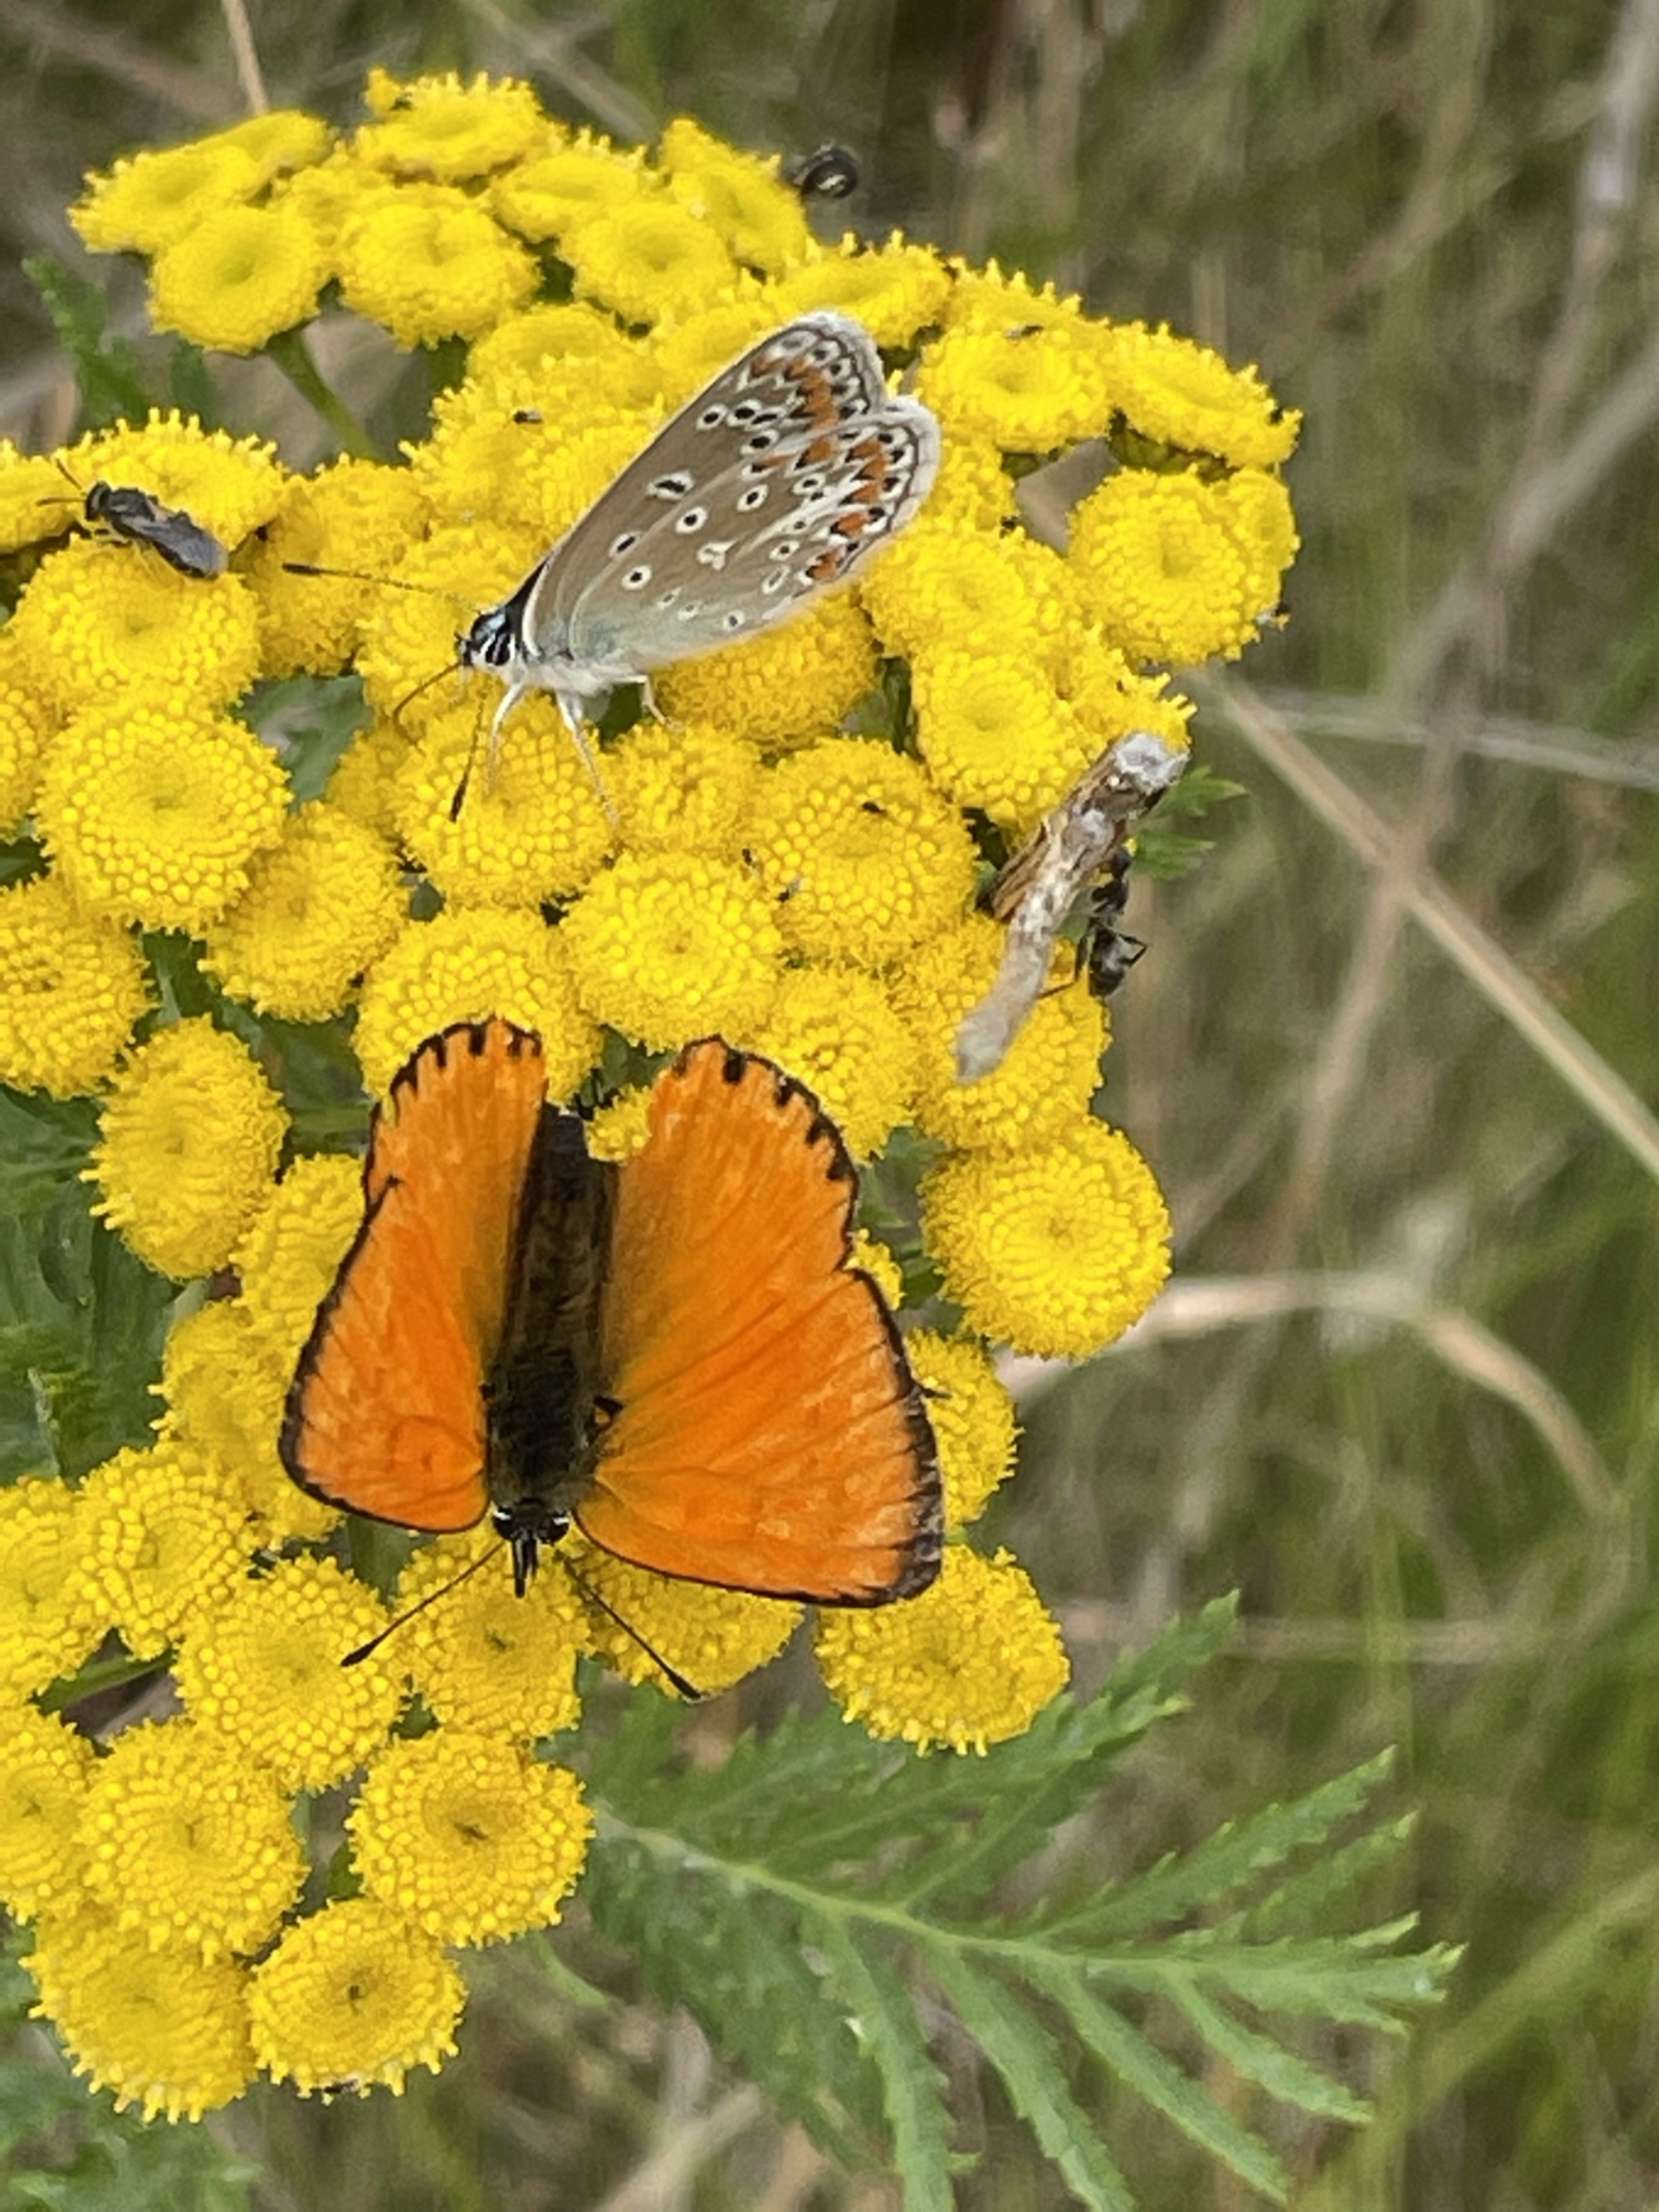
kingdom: Animalia
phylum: Arthropoda
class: Insecta
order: Lepidoptera
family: Lycaenidae
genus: Lycaena
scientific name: Lycaena virgaureae
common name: Dukatsommerfugl
